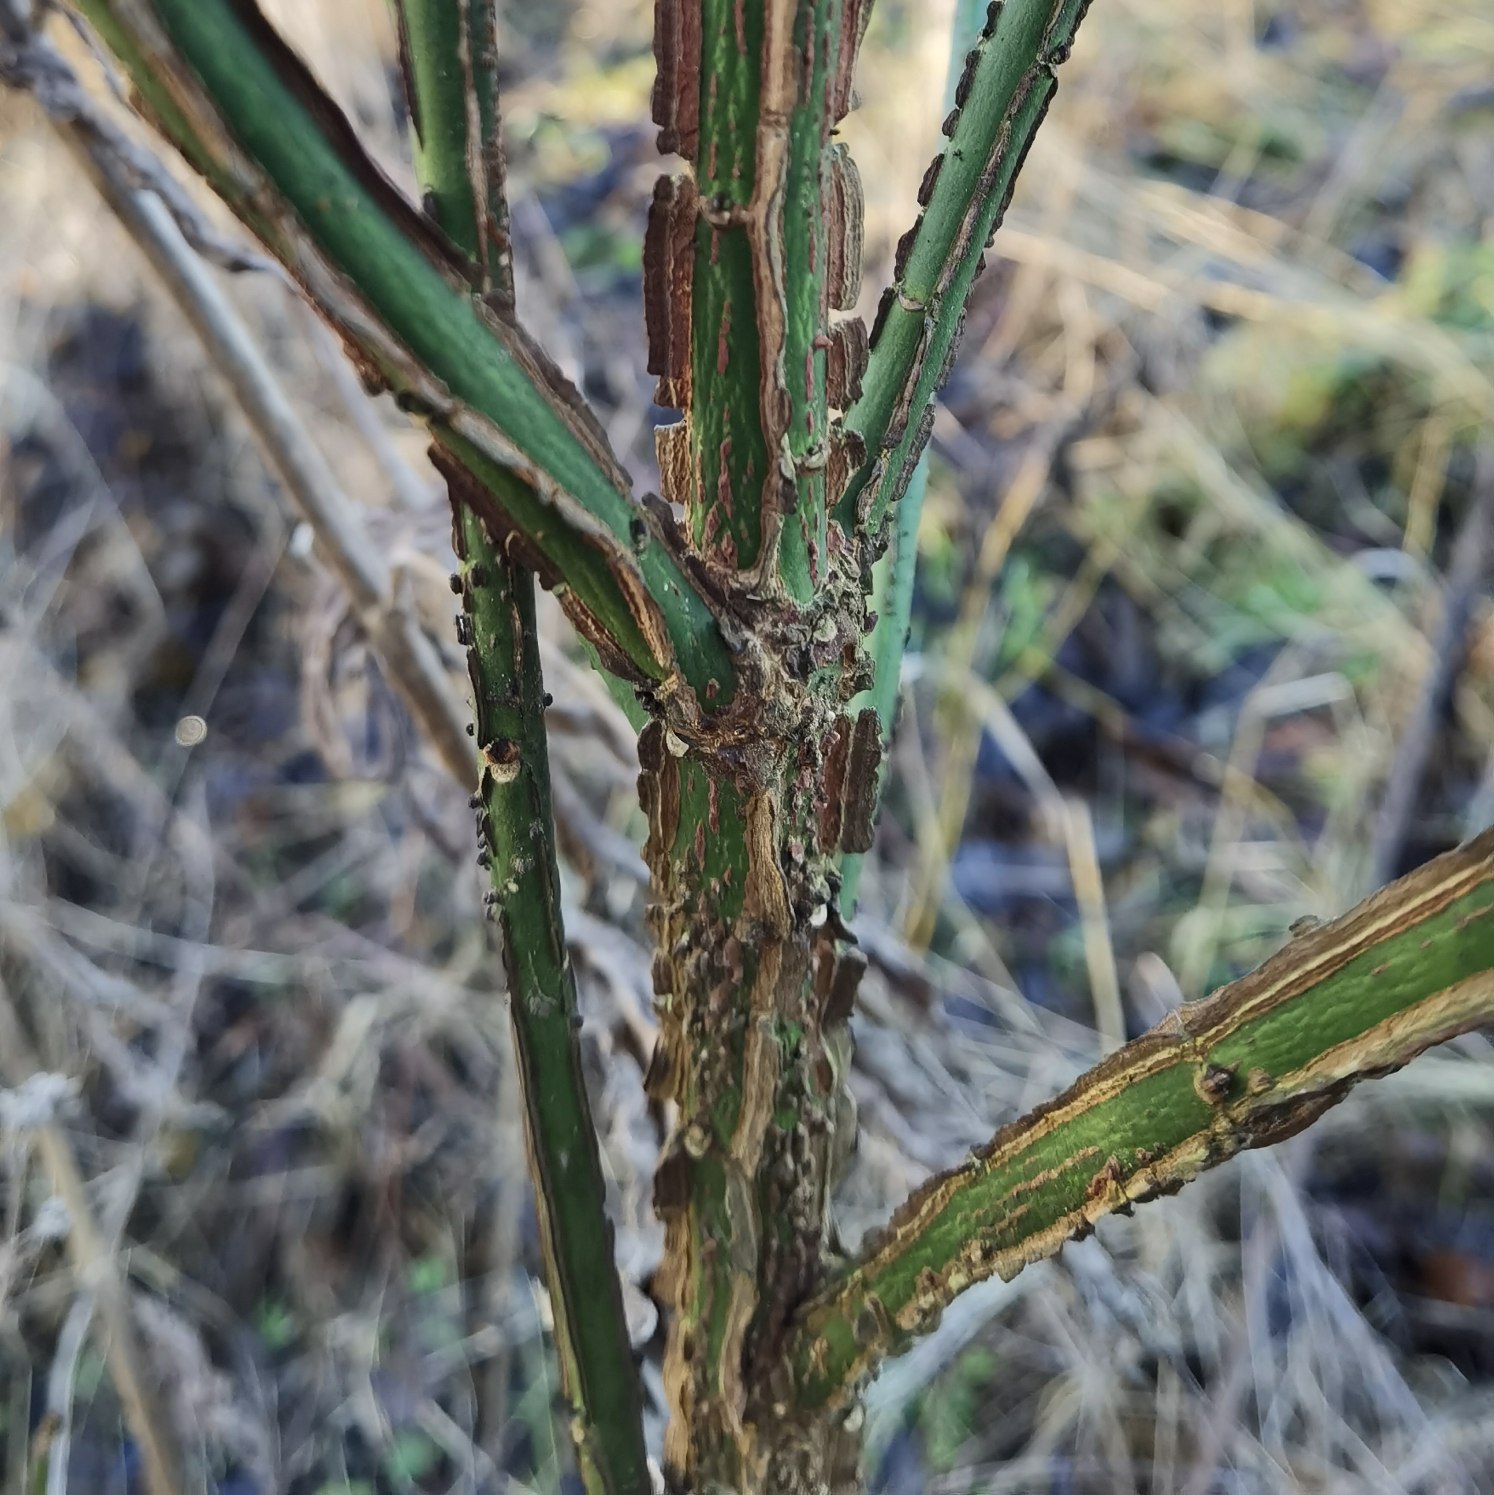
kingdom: Plantae
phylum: Tracheophyta
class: Magnoliopsida
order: Celastrales
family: Celastraceae
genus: Euonymus
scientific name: Euonymus europaeus
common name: Benved
